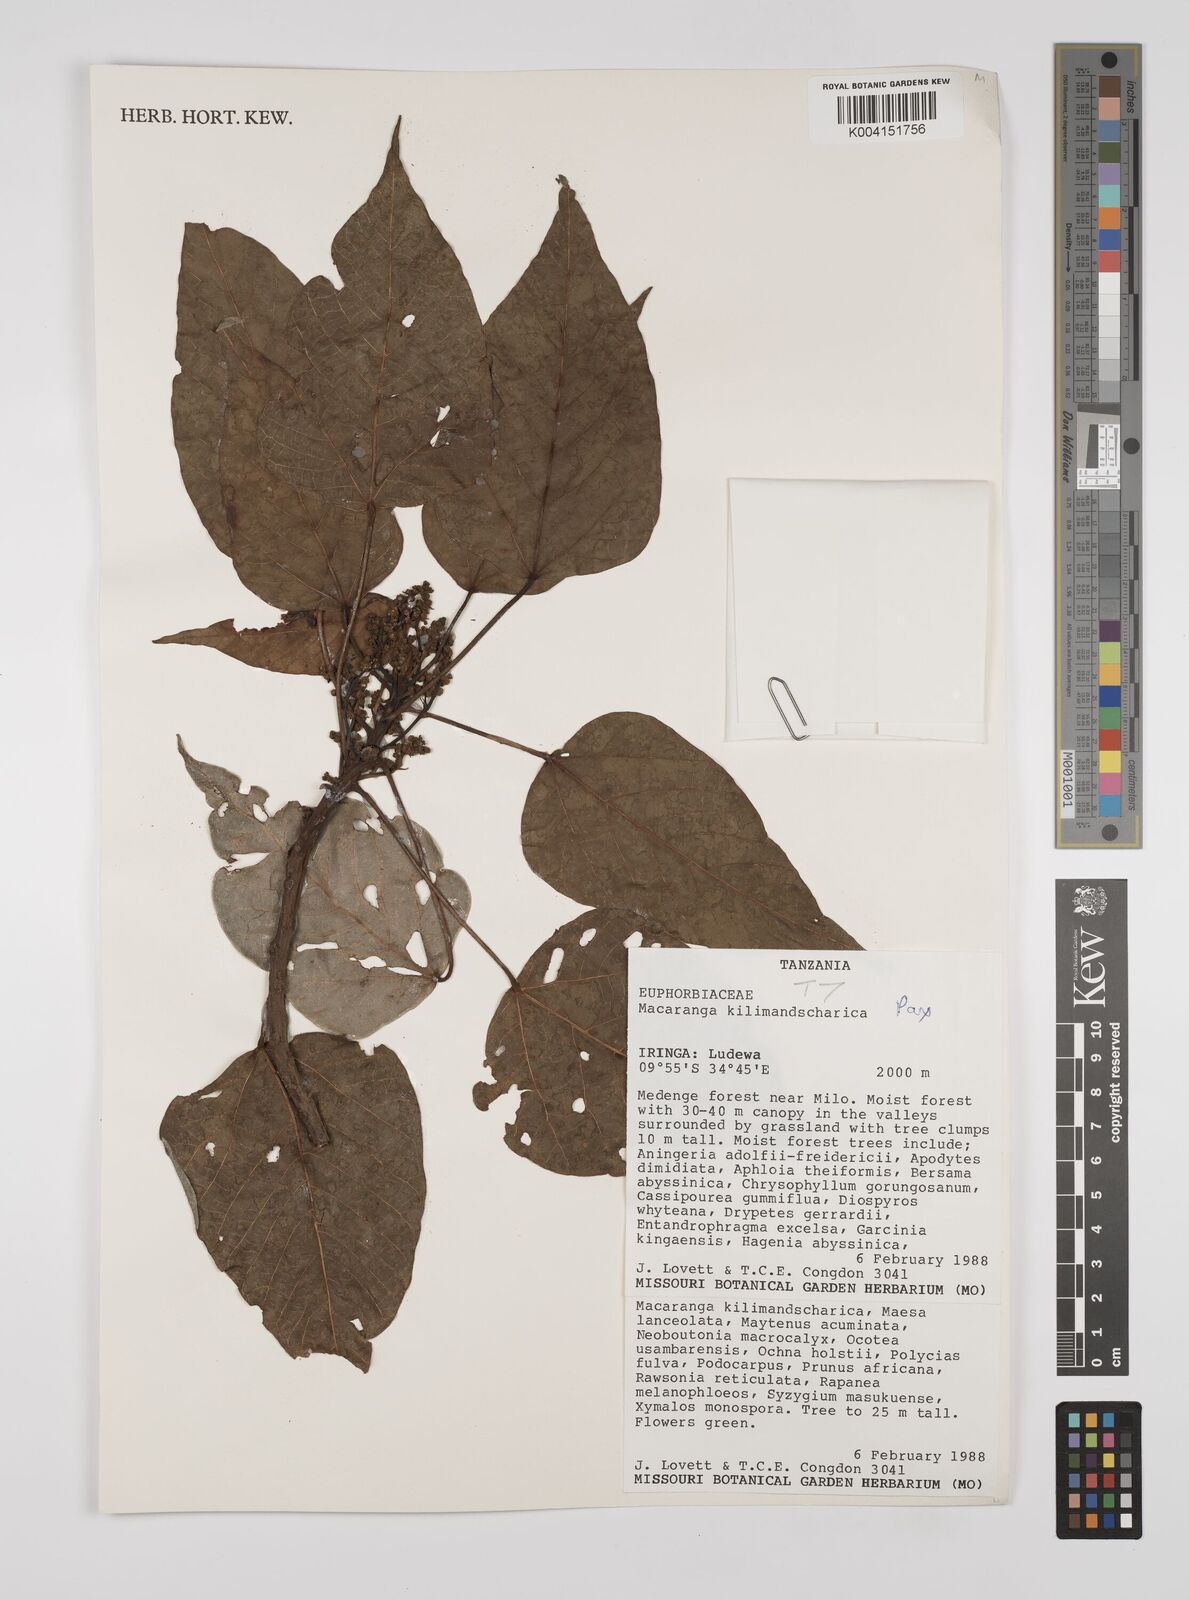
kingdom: Plantae
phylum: Tracheophyta
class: Magnoliopsida
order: Malpighiales
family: Euphorbiaceae
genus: Macaranga
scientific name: Macaranga kilimandscharica
